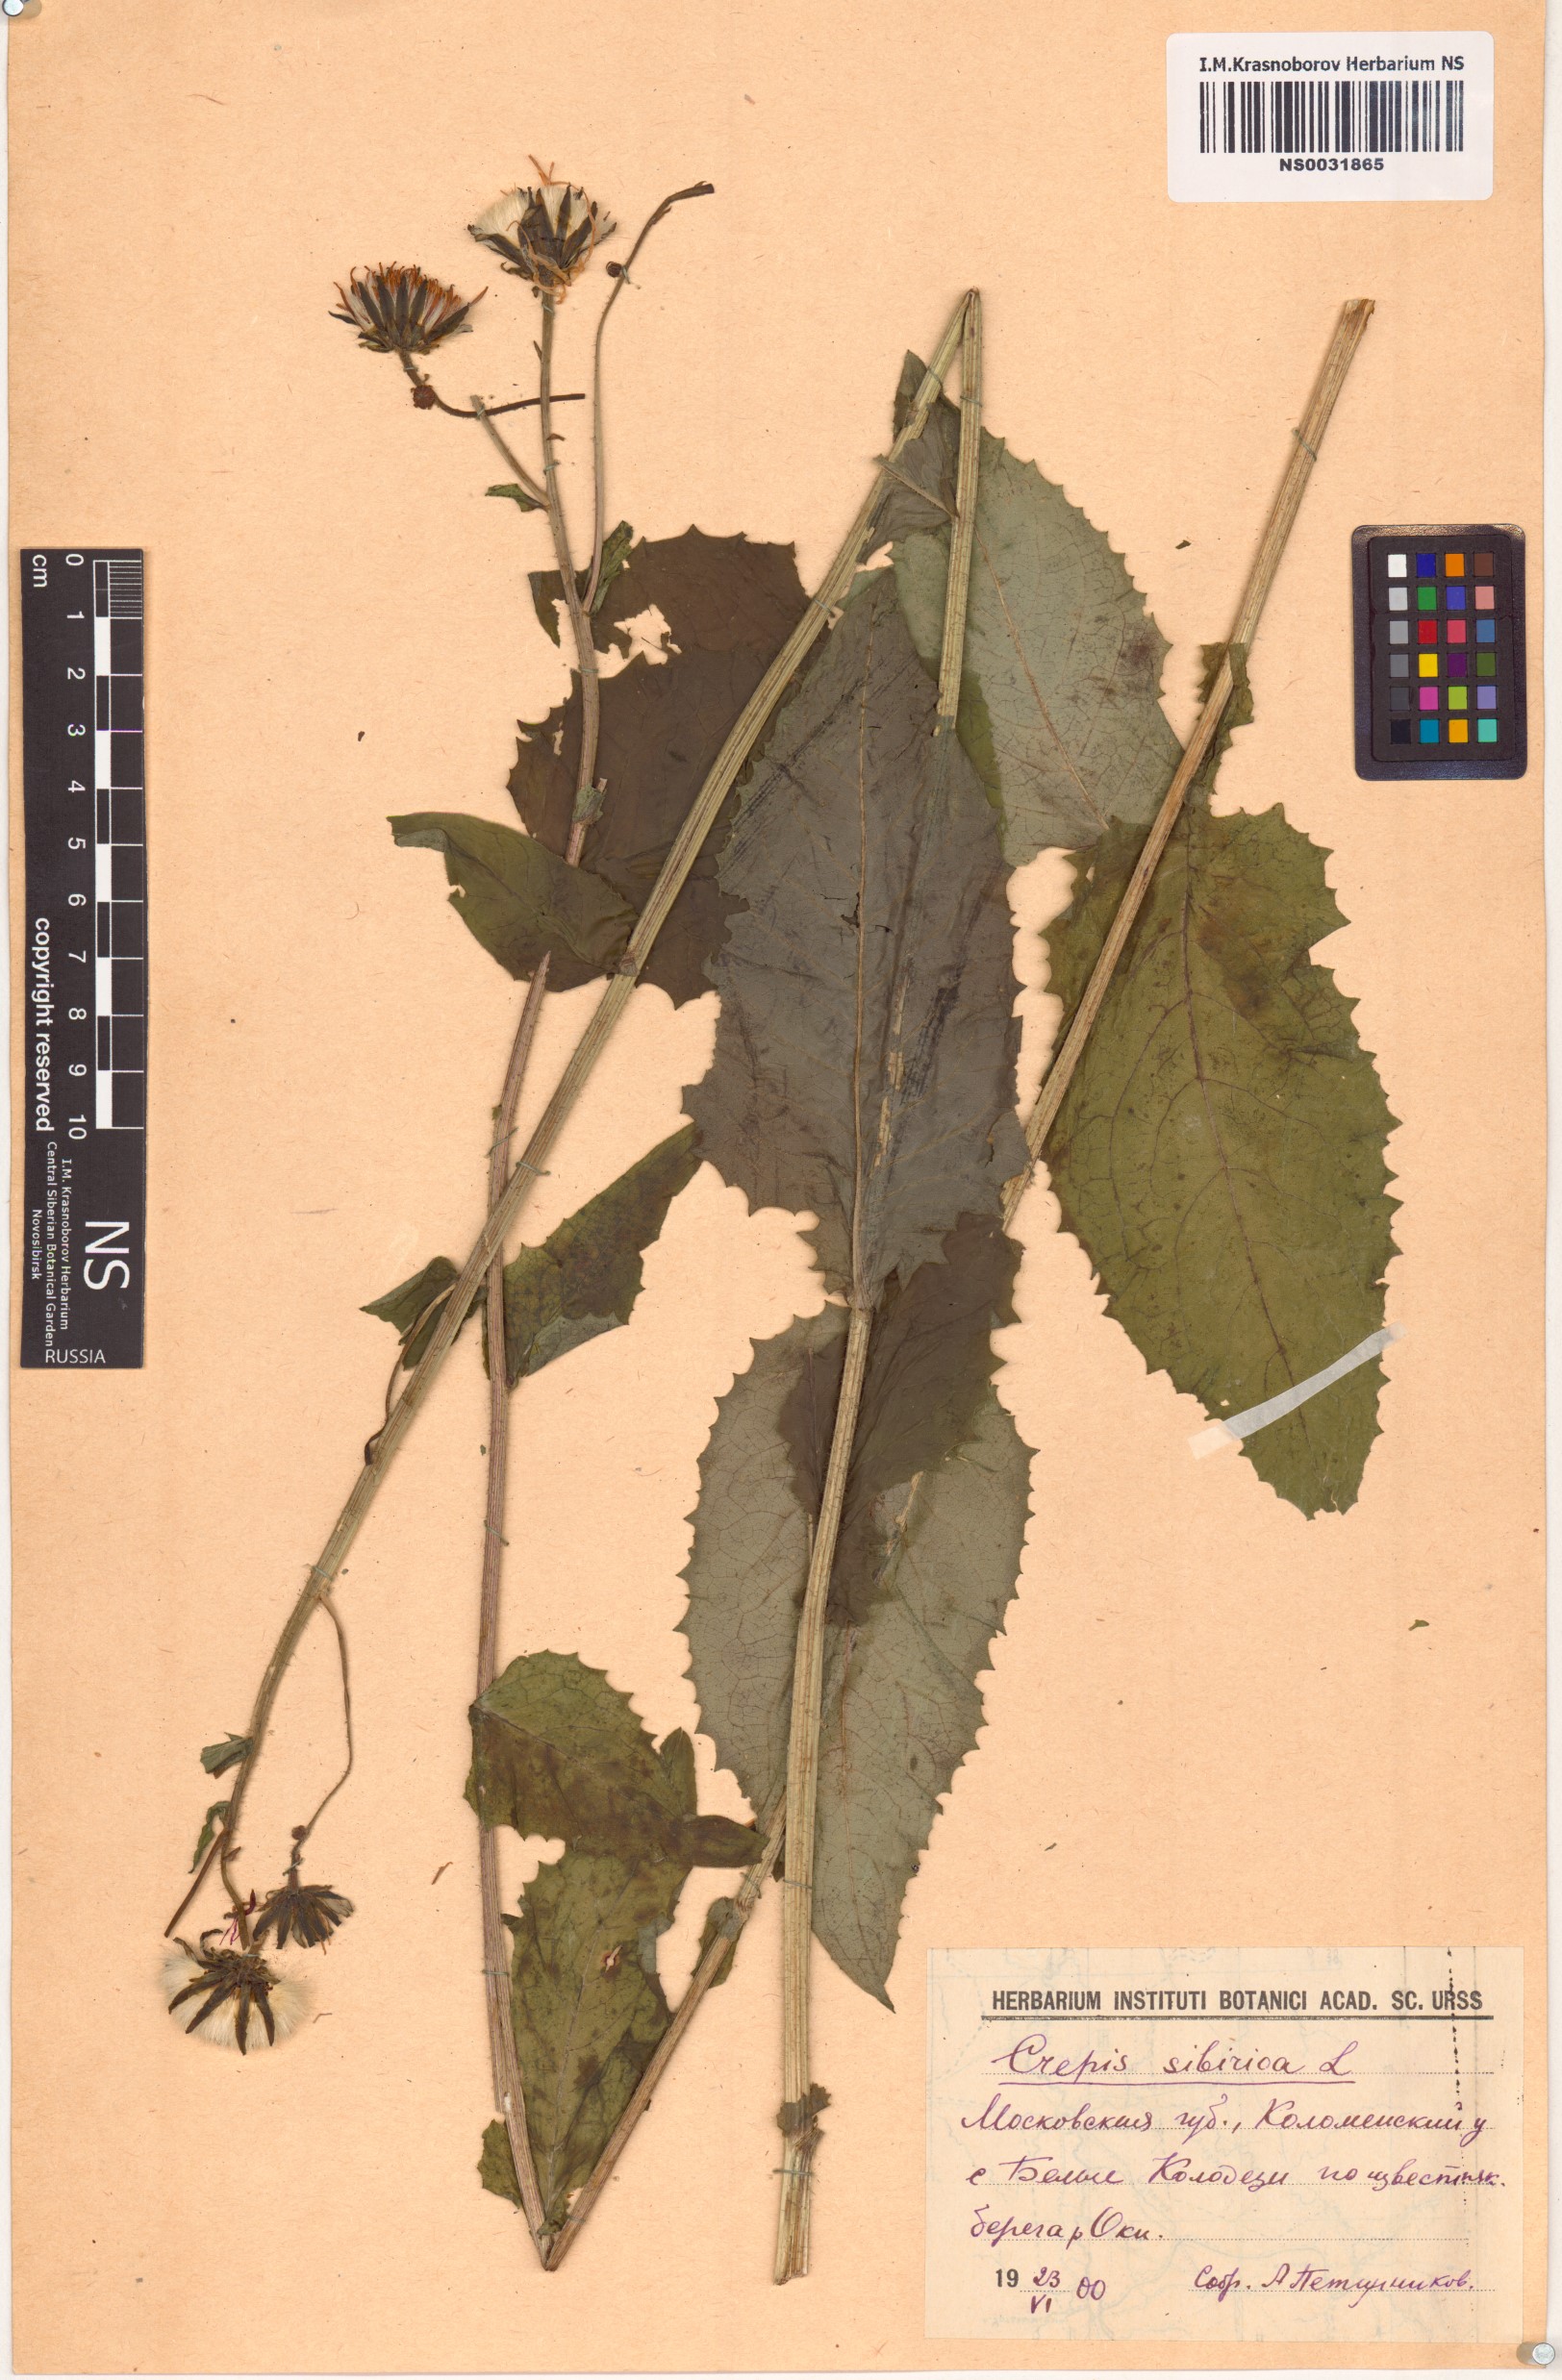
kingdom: Plantae
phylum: Tracheophyta
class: Magnoliopsida
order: Asterales
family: Asteraceae
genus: Crepis
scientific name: Crepis sibirica
